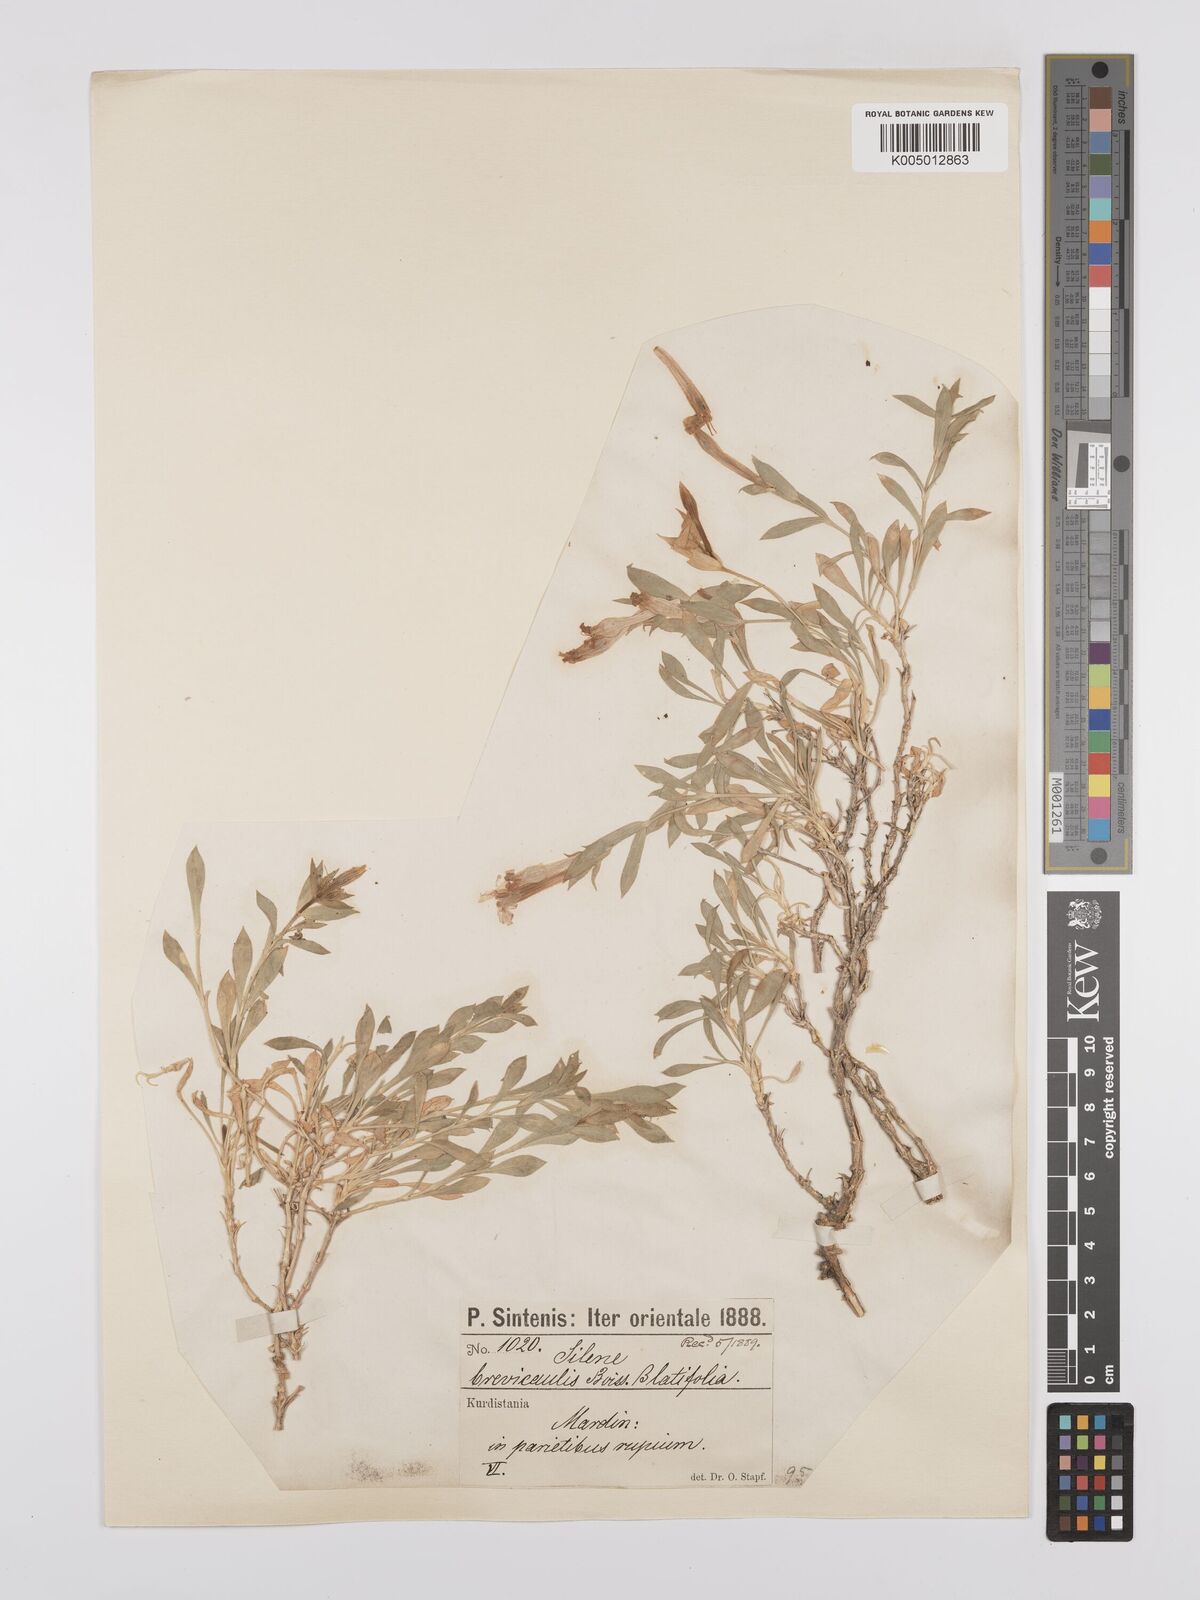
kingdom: Plantae
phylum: Tracheophyta
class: Magnoliopsida
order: Caryophyllales
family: Caryophyllaceae
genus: Silene
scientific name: Silene brevicaulis
